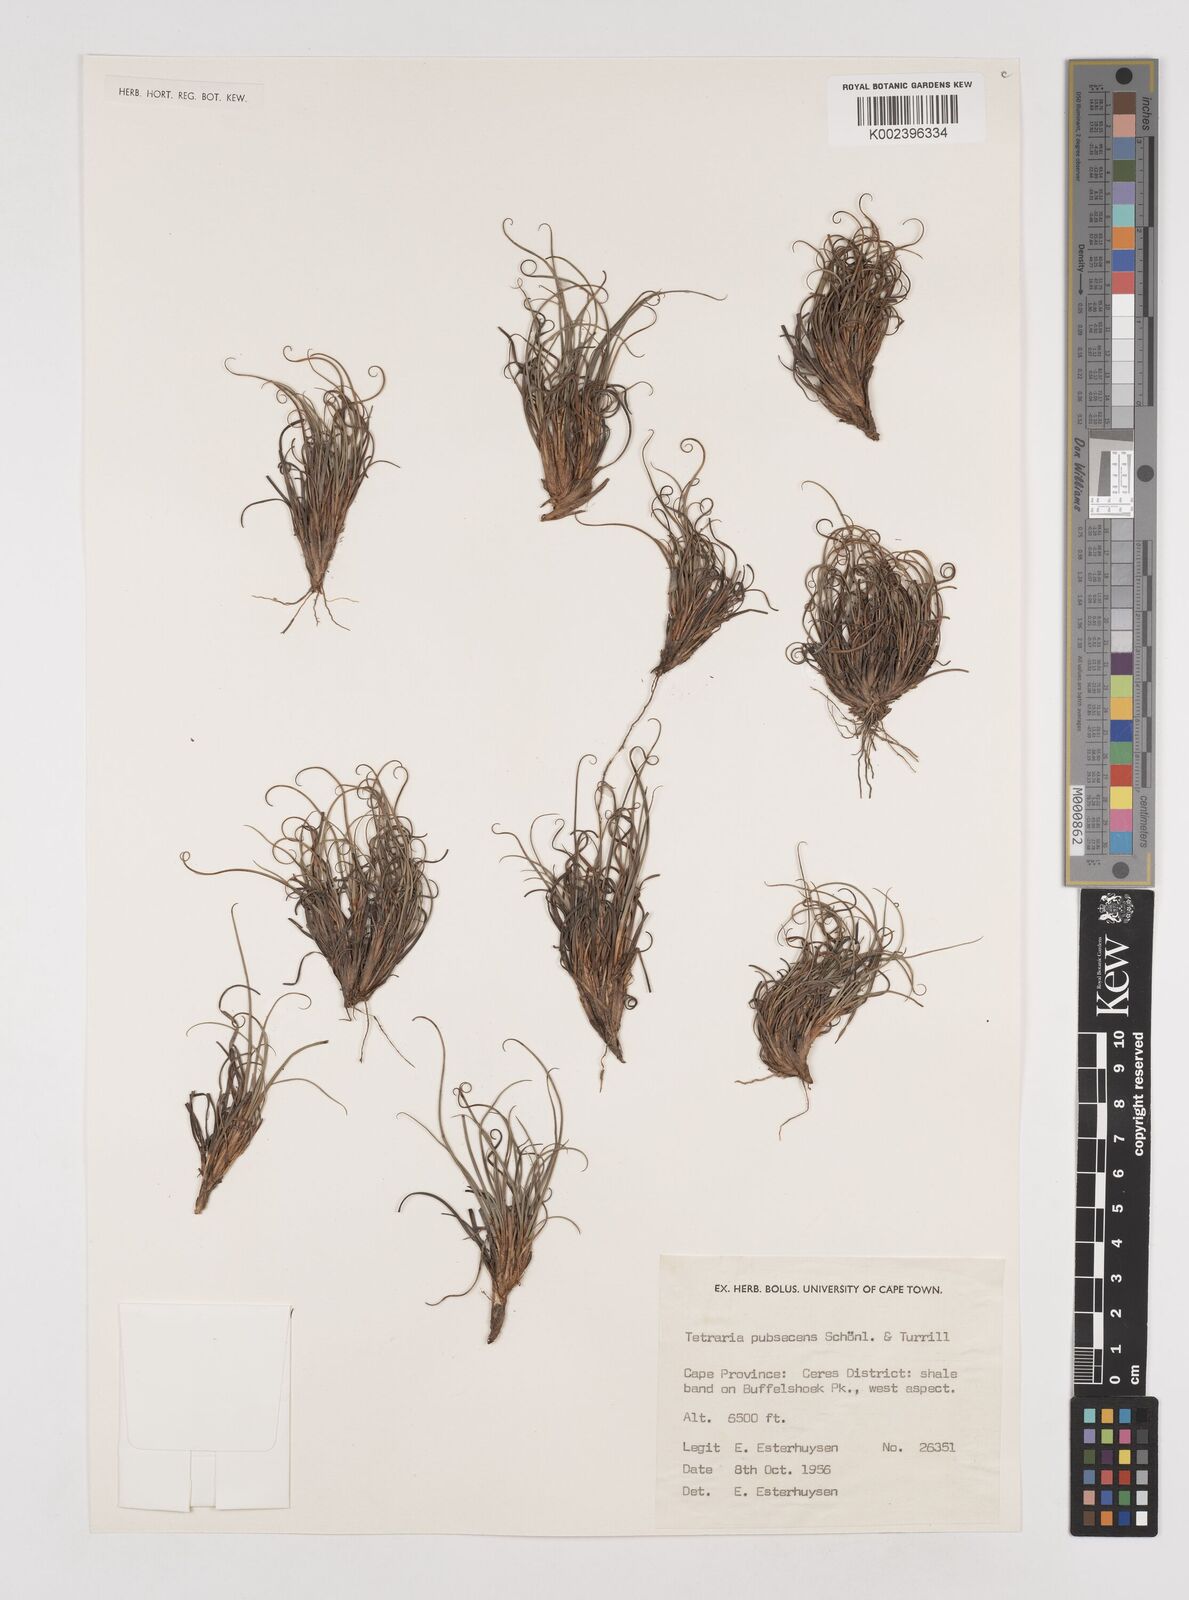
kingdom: Plantae
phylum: Tracheophyta
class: Liliopsida
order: Poales
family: Cyperaceae
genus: Tetraria
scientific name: Tetraria pubescens
